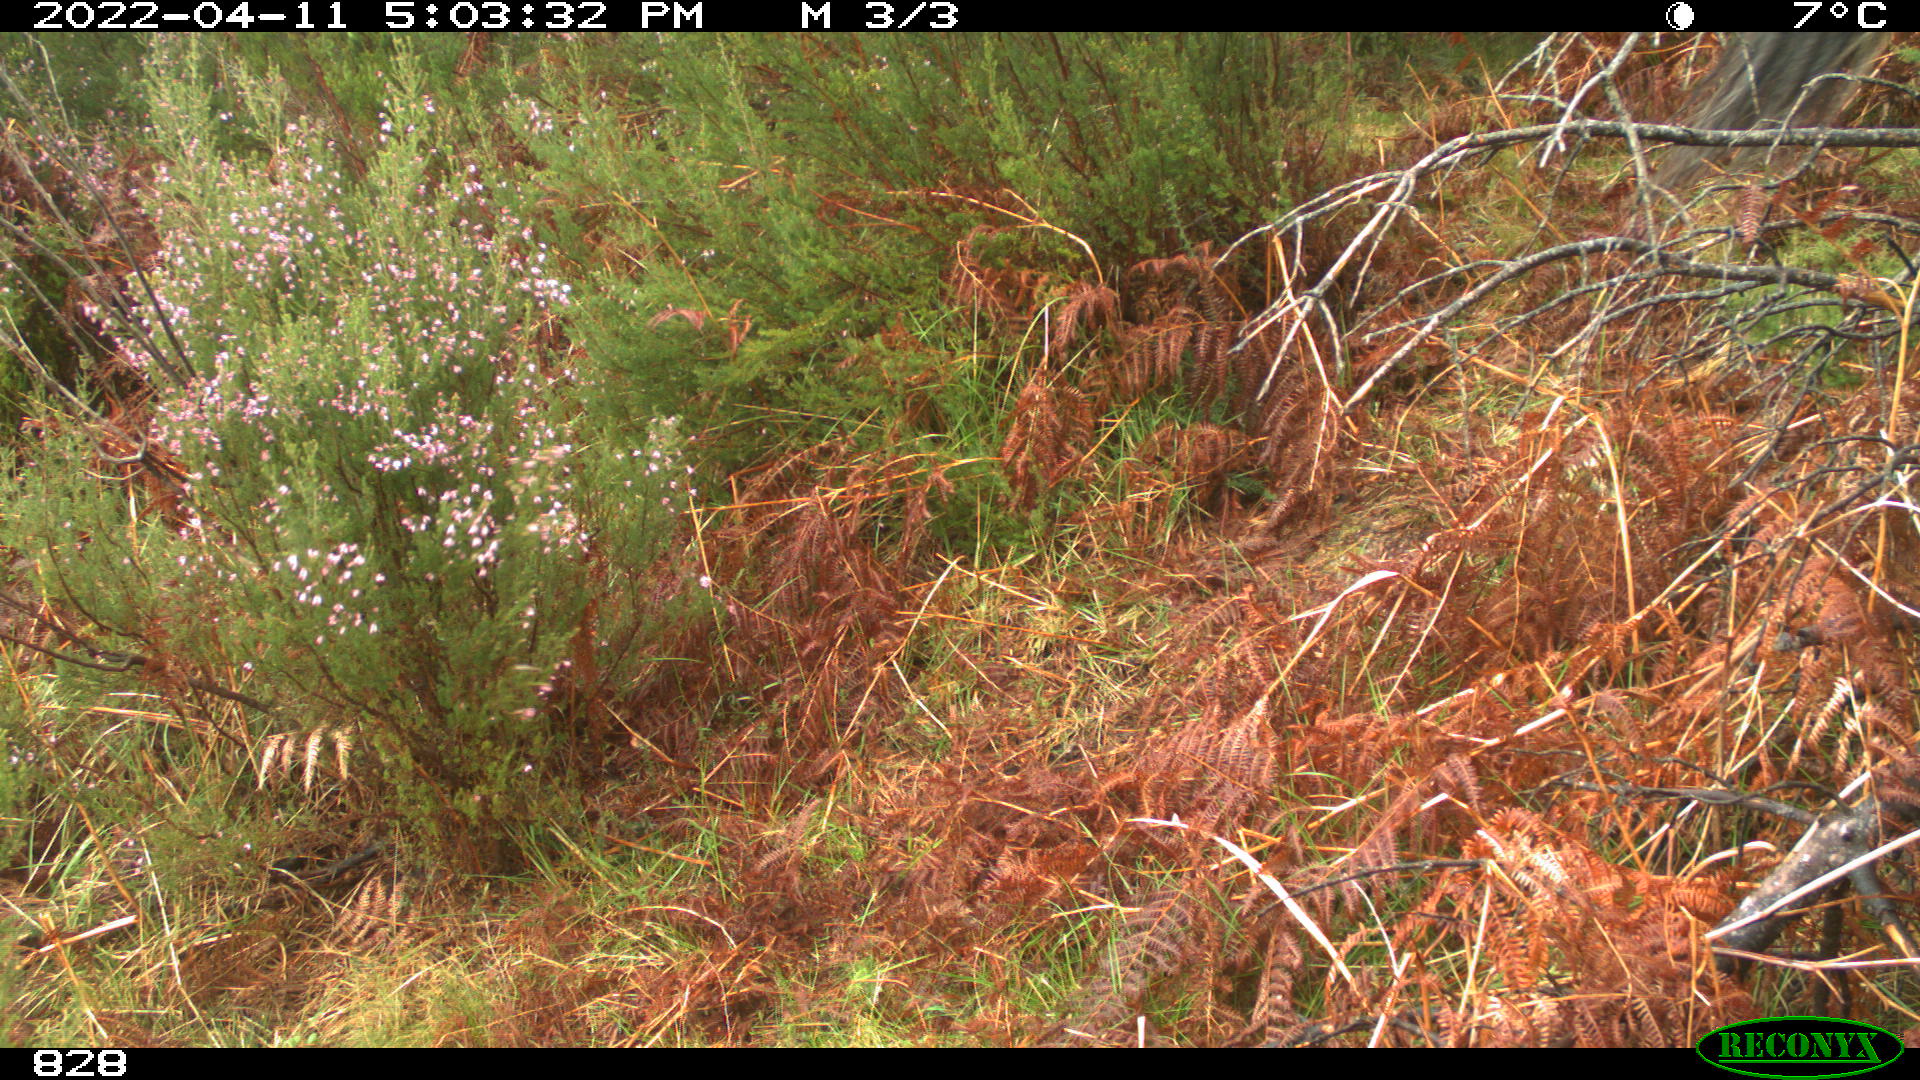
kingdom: Animalia
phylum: Chordata
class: Mammalia
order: Perissodactyla
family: Equidae
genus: Equus
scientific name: Equus caballus
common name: Horse
